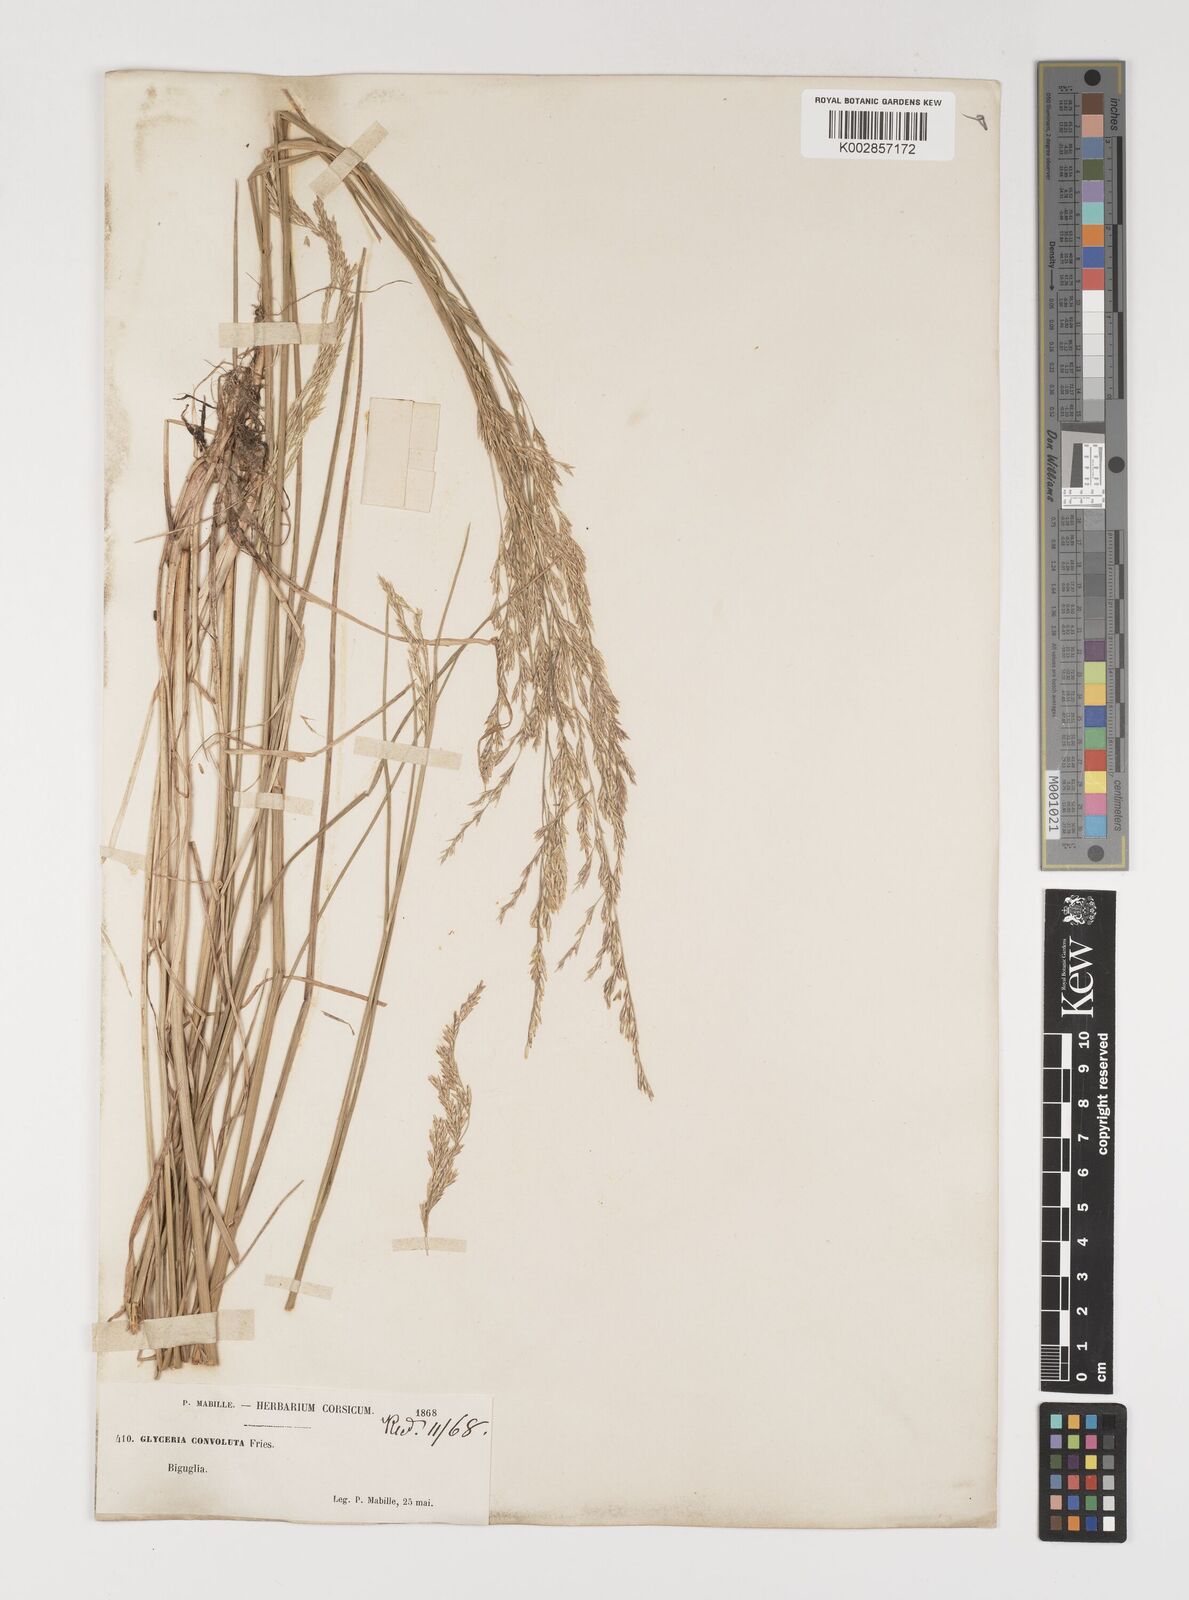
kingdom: Plantae
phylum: Tracheophyta
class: Liliopsida
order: Poales
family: Poaceae
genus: Puccinellia
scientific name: Puccinellia convoluta
